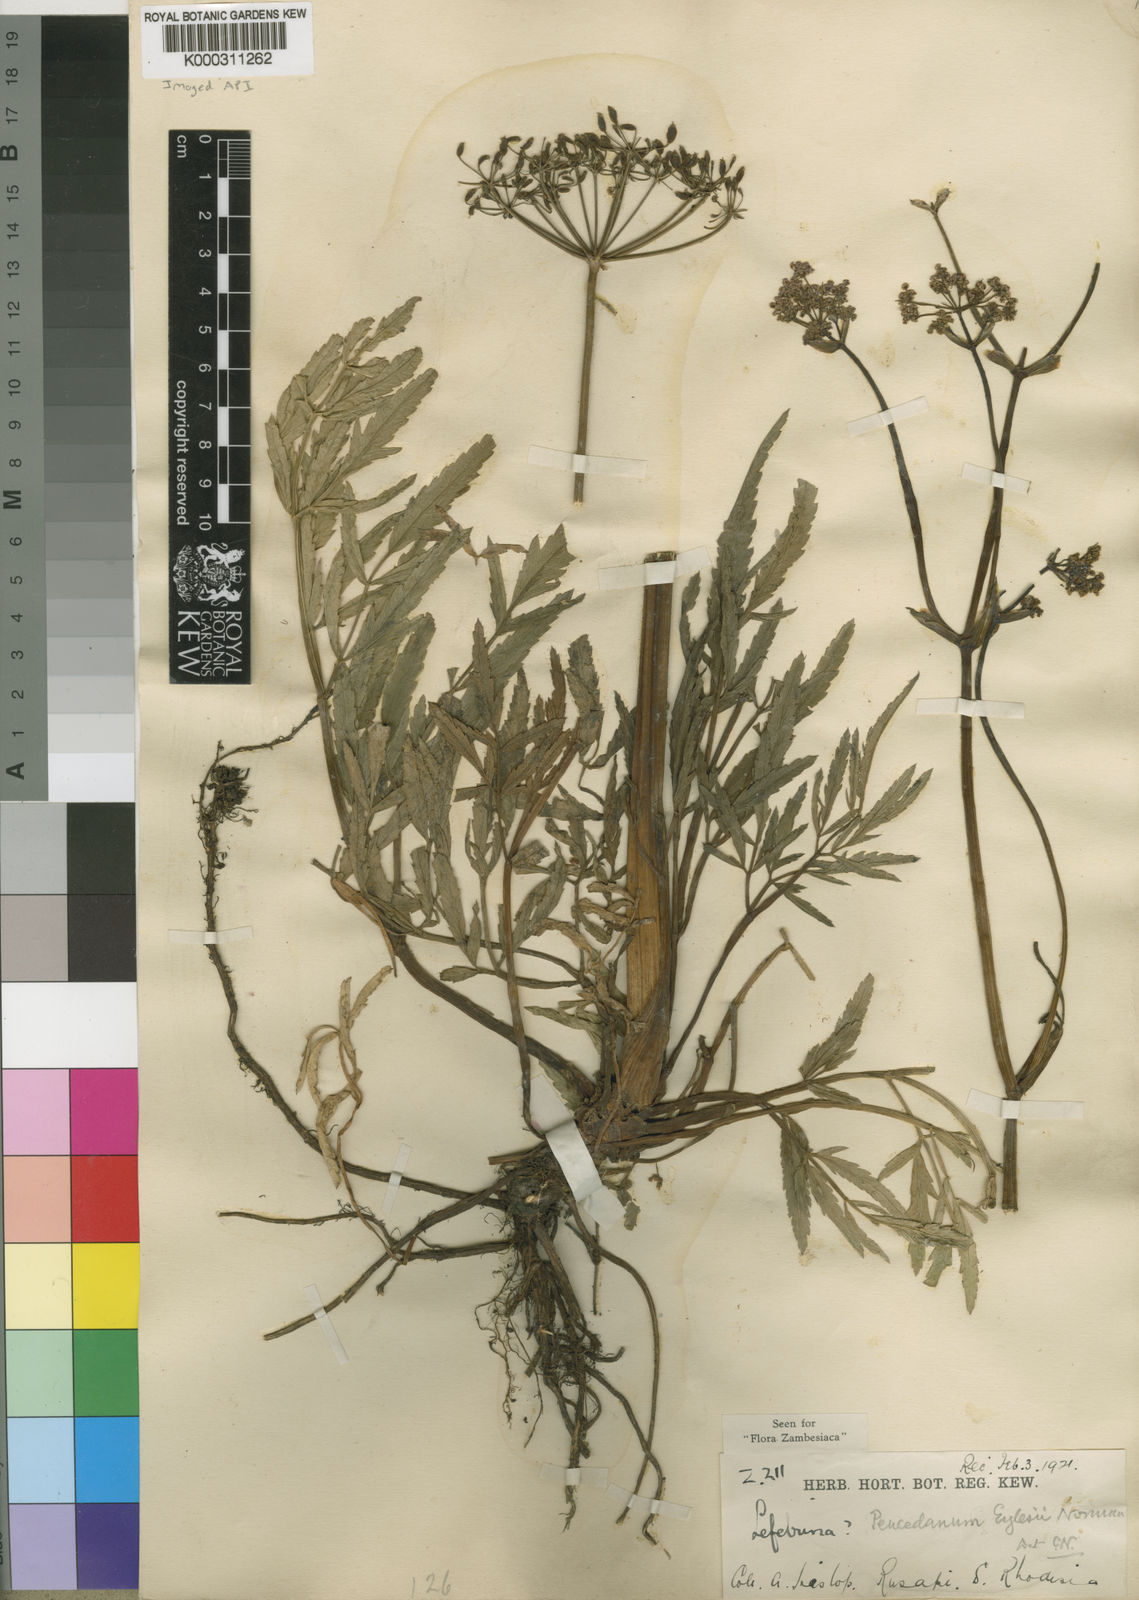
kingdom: Plantae
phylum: Tracheophyta
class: Magnoliopsida
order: Apiales
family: Apiaceae
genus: Afrosciadium
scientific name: Afrosciadium eylesii
